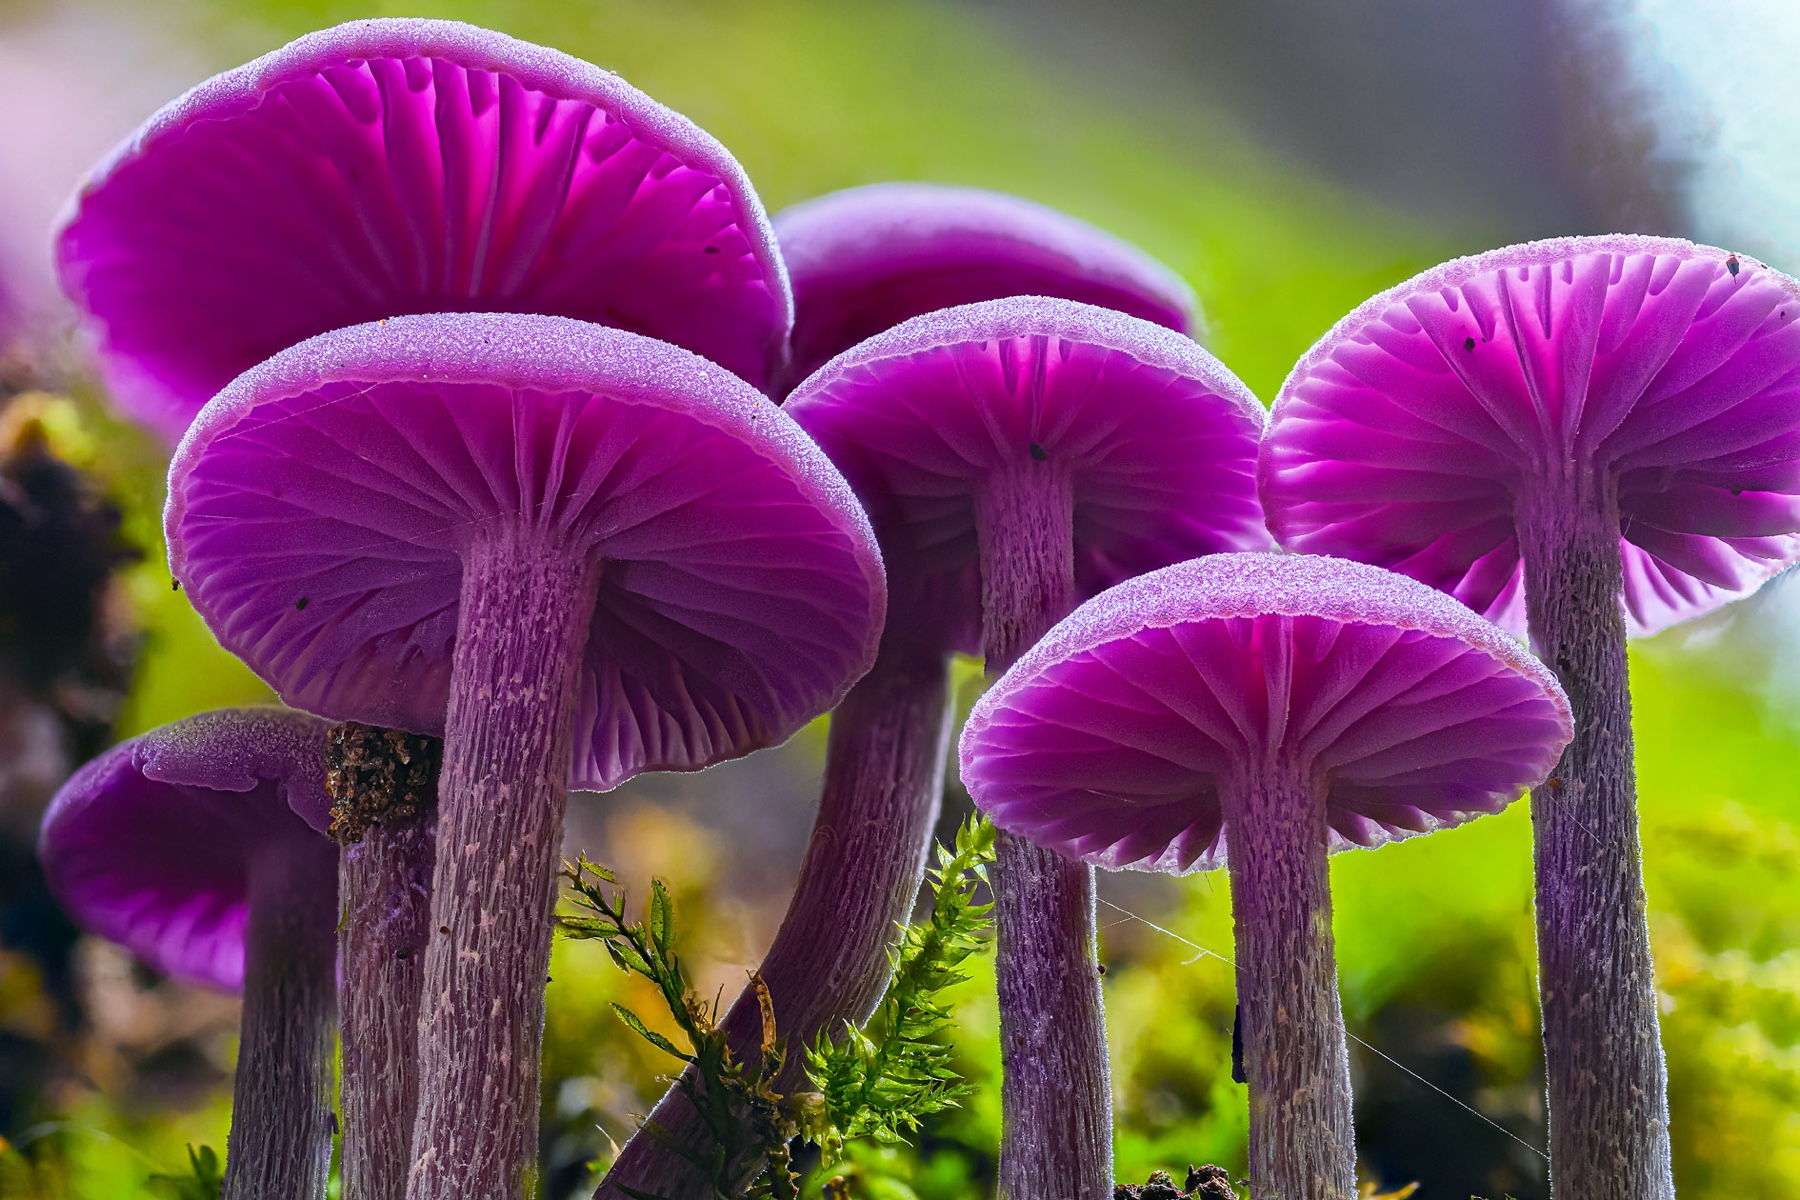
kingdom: Fungi
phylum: Basidiomycota
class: Agaricomycetes
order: Agaricales
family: Hydnangiaceae
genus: Laccaria
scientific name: Laccaria amethystina
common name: violet ametysthat
